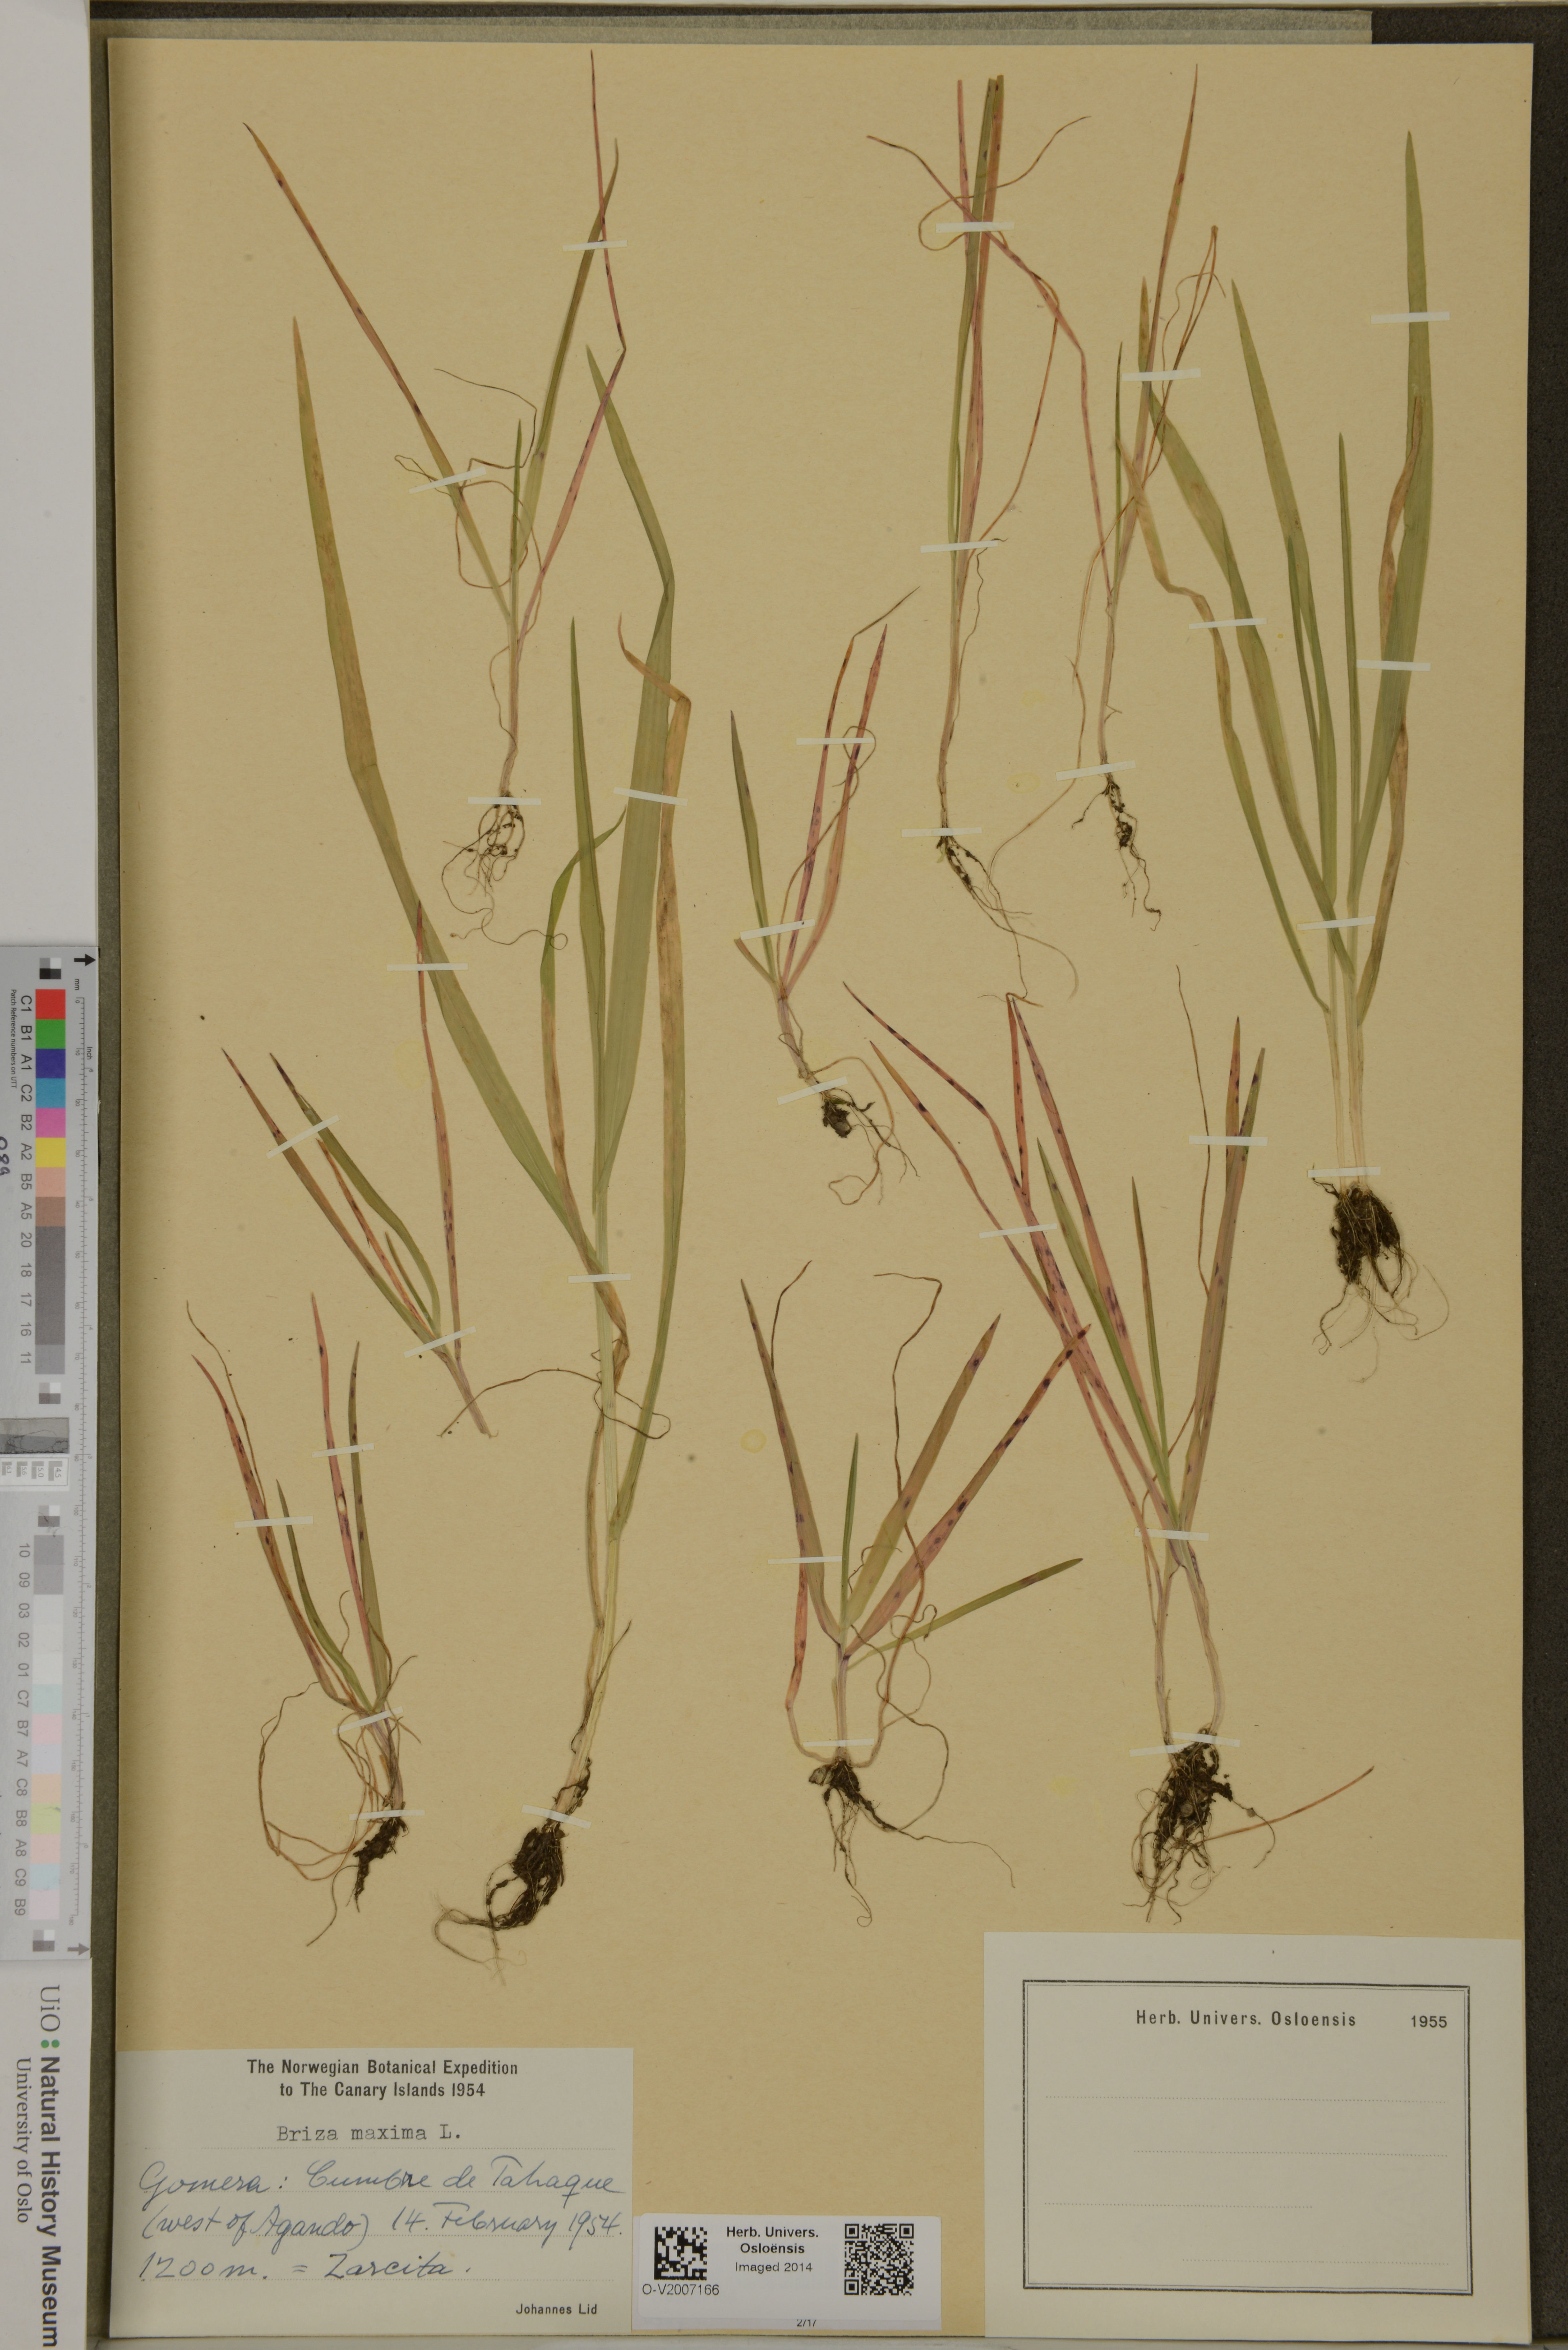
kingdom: Plantae
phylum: Tracheophyta
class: Liliopsida
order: Poales
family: Poaceae
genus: Briza
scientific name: Briza maxima
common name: Big quakinggrass
